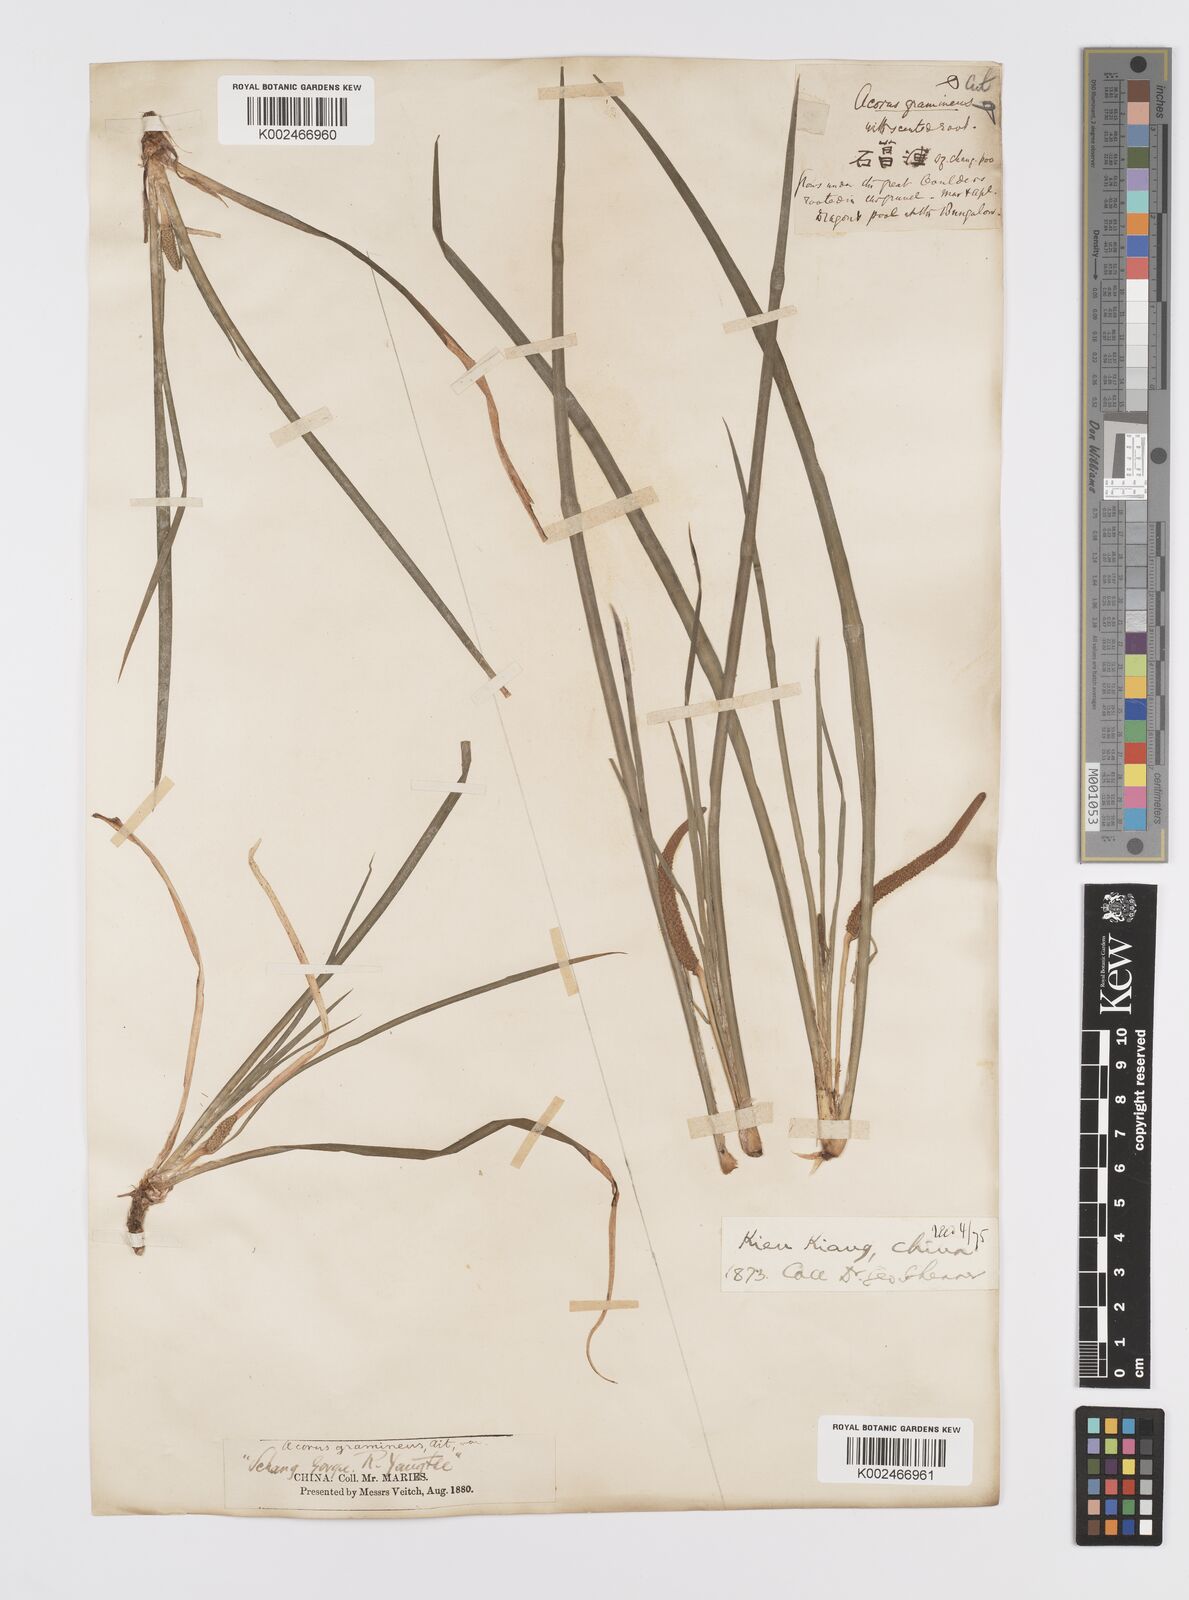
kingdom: Plantae
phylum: Tracheophyta
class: Liliopsida
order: Acorales
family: Acoraceae
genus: Acorus
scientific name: Acorus gramineus
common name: Slender sweet-flag
